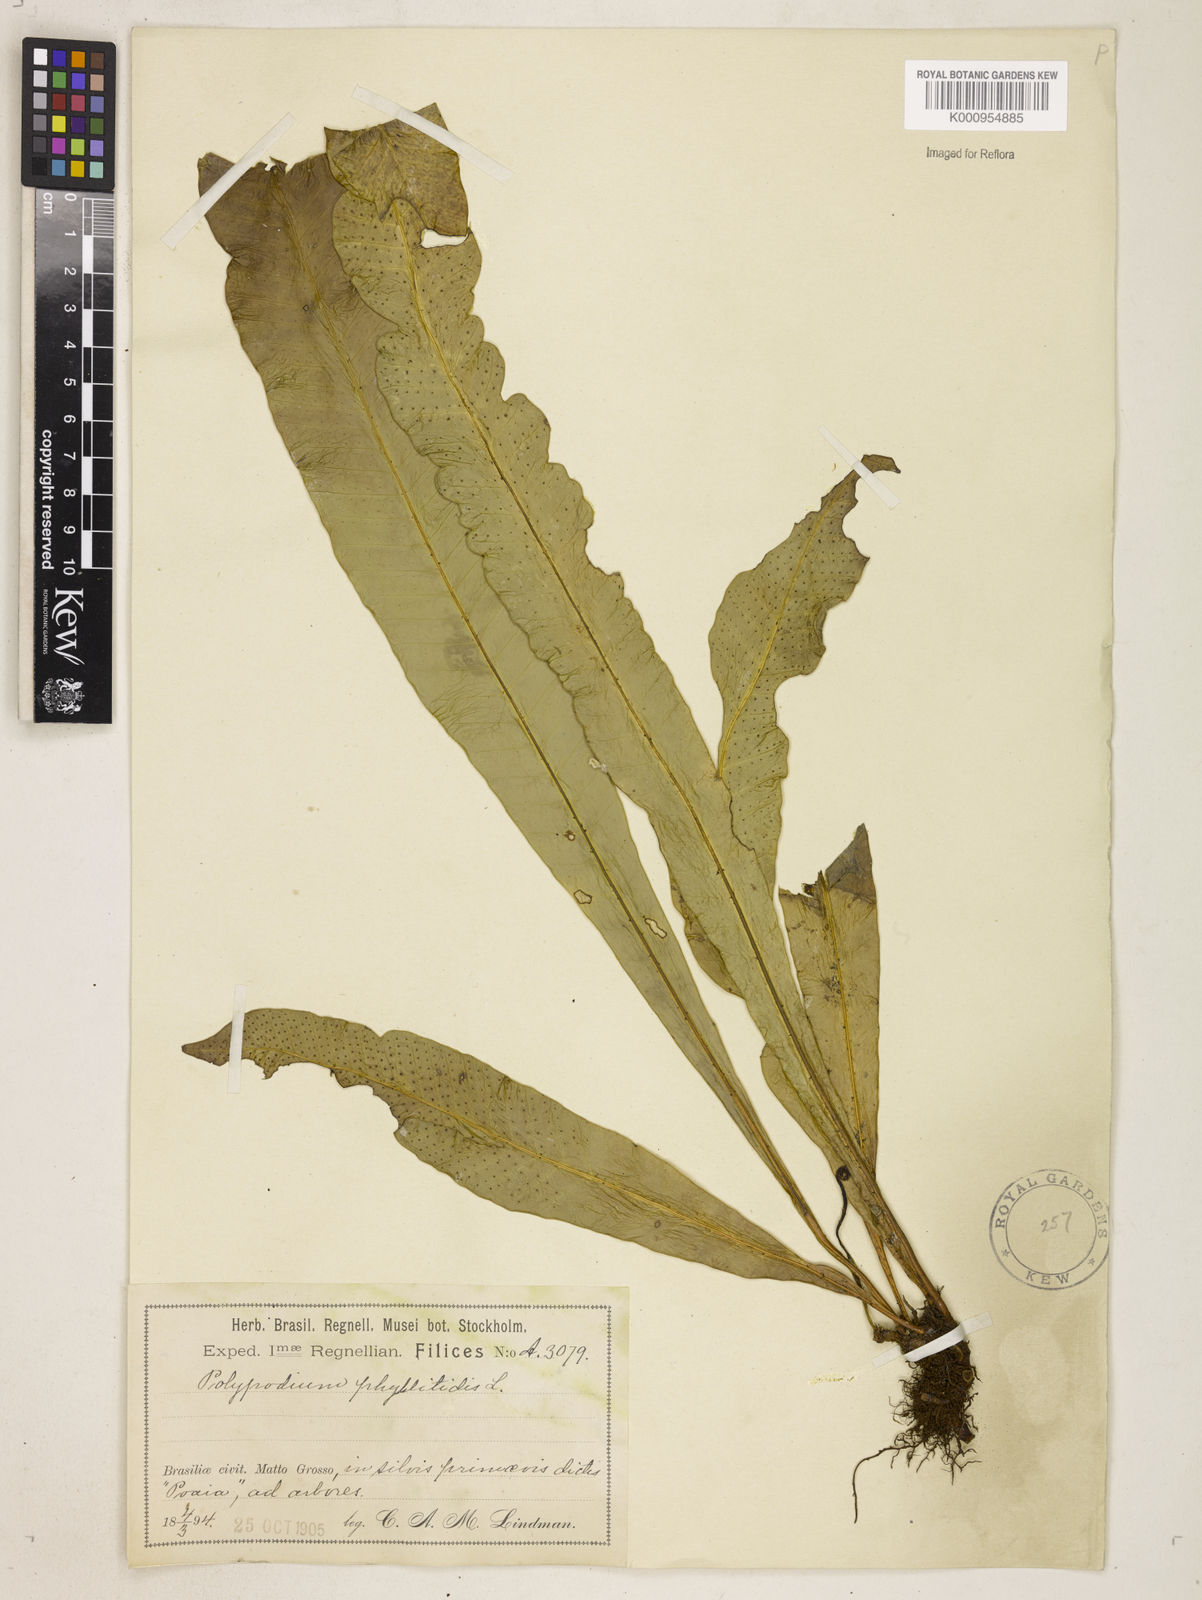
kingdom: Plantae
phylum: Tracheophyta
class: Polypodiopsida
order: Polypodiales
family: Polypodiaceae
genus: Campyloneurum
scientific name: Campyloneurum phyllitidis
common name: Cow-tongue fern
